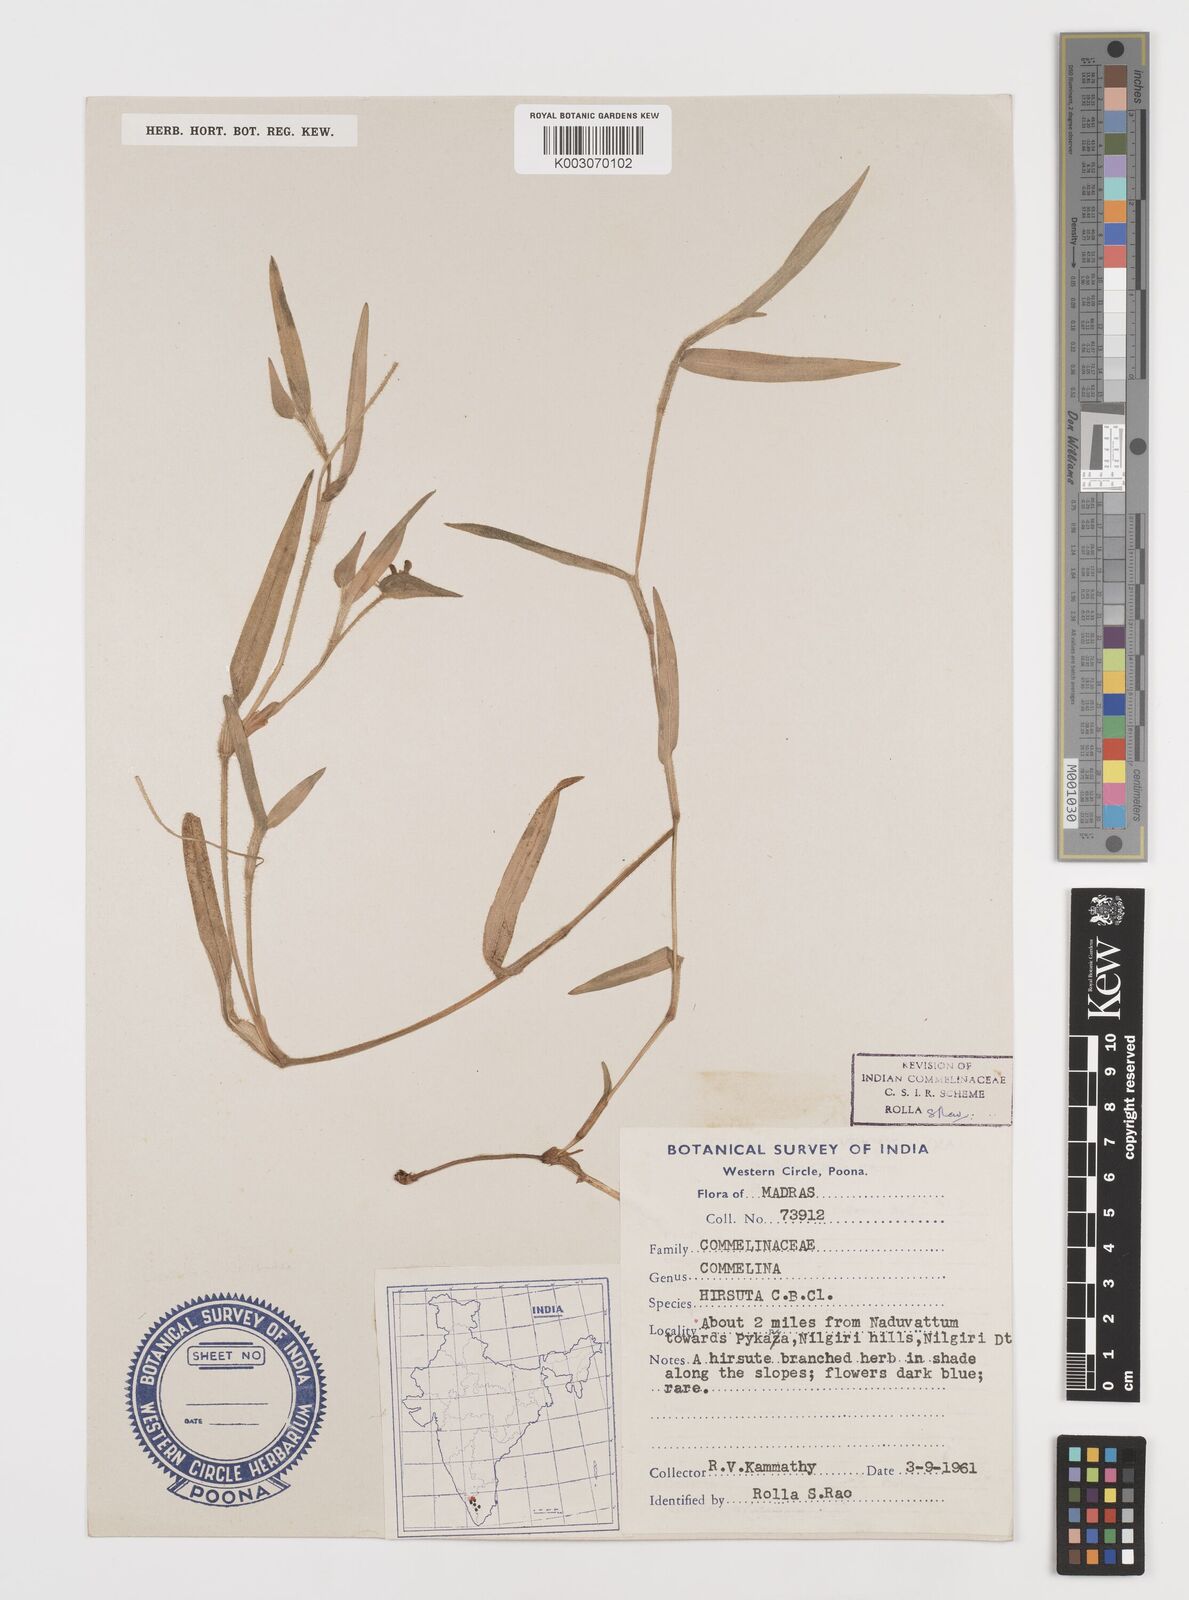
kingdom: Plantae
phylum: Tracheophyta
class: Liliopsida
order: Commelinales
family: Commelinaceae
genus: Commelina
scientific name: Commelina hirsuta
